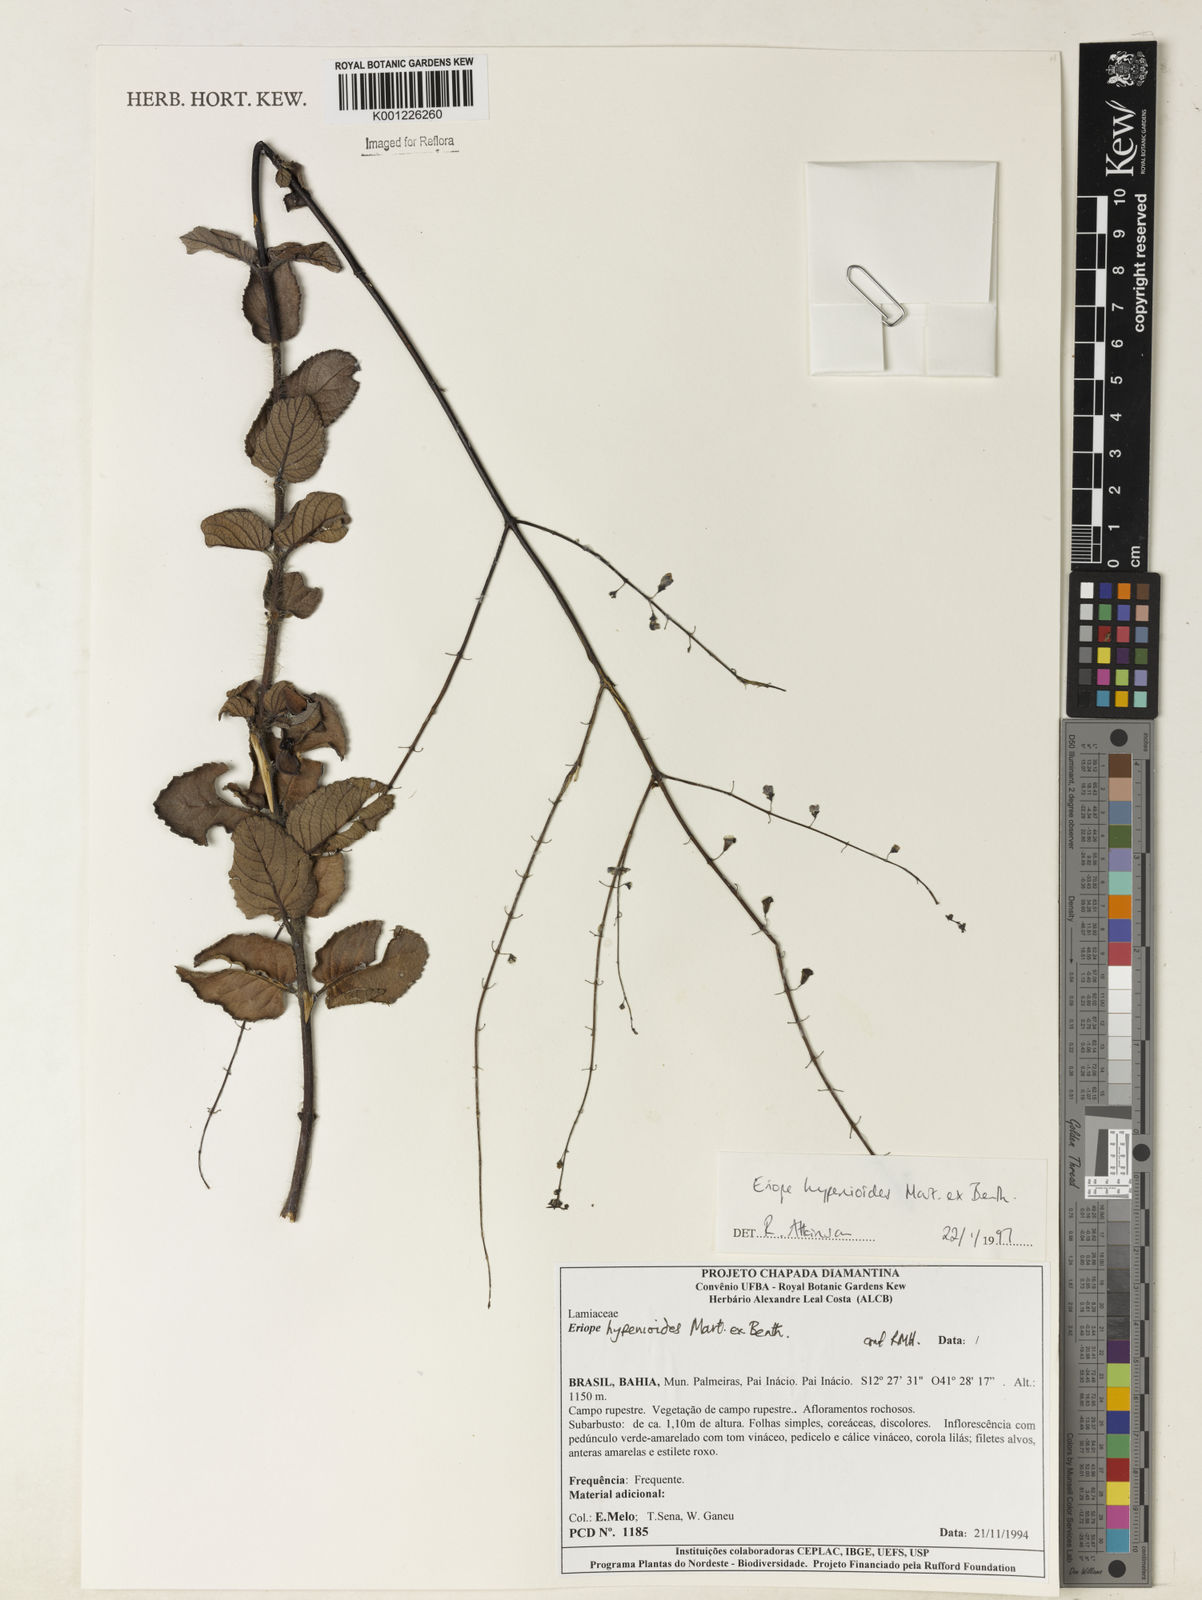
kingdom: Plantae
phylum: Tracheophyta
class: Magnoliopsida
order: Lamiales
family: Lamiaceae
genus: Eriope
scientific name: Eriope hypenioides
